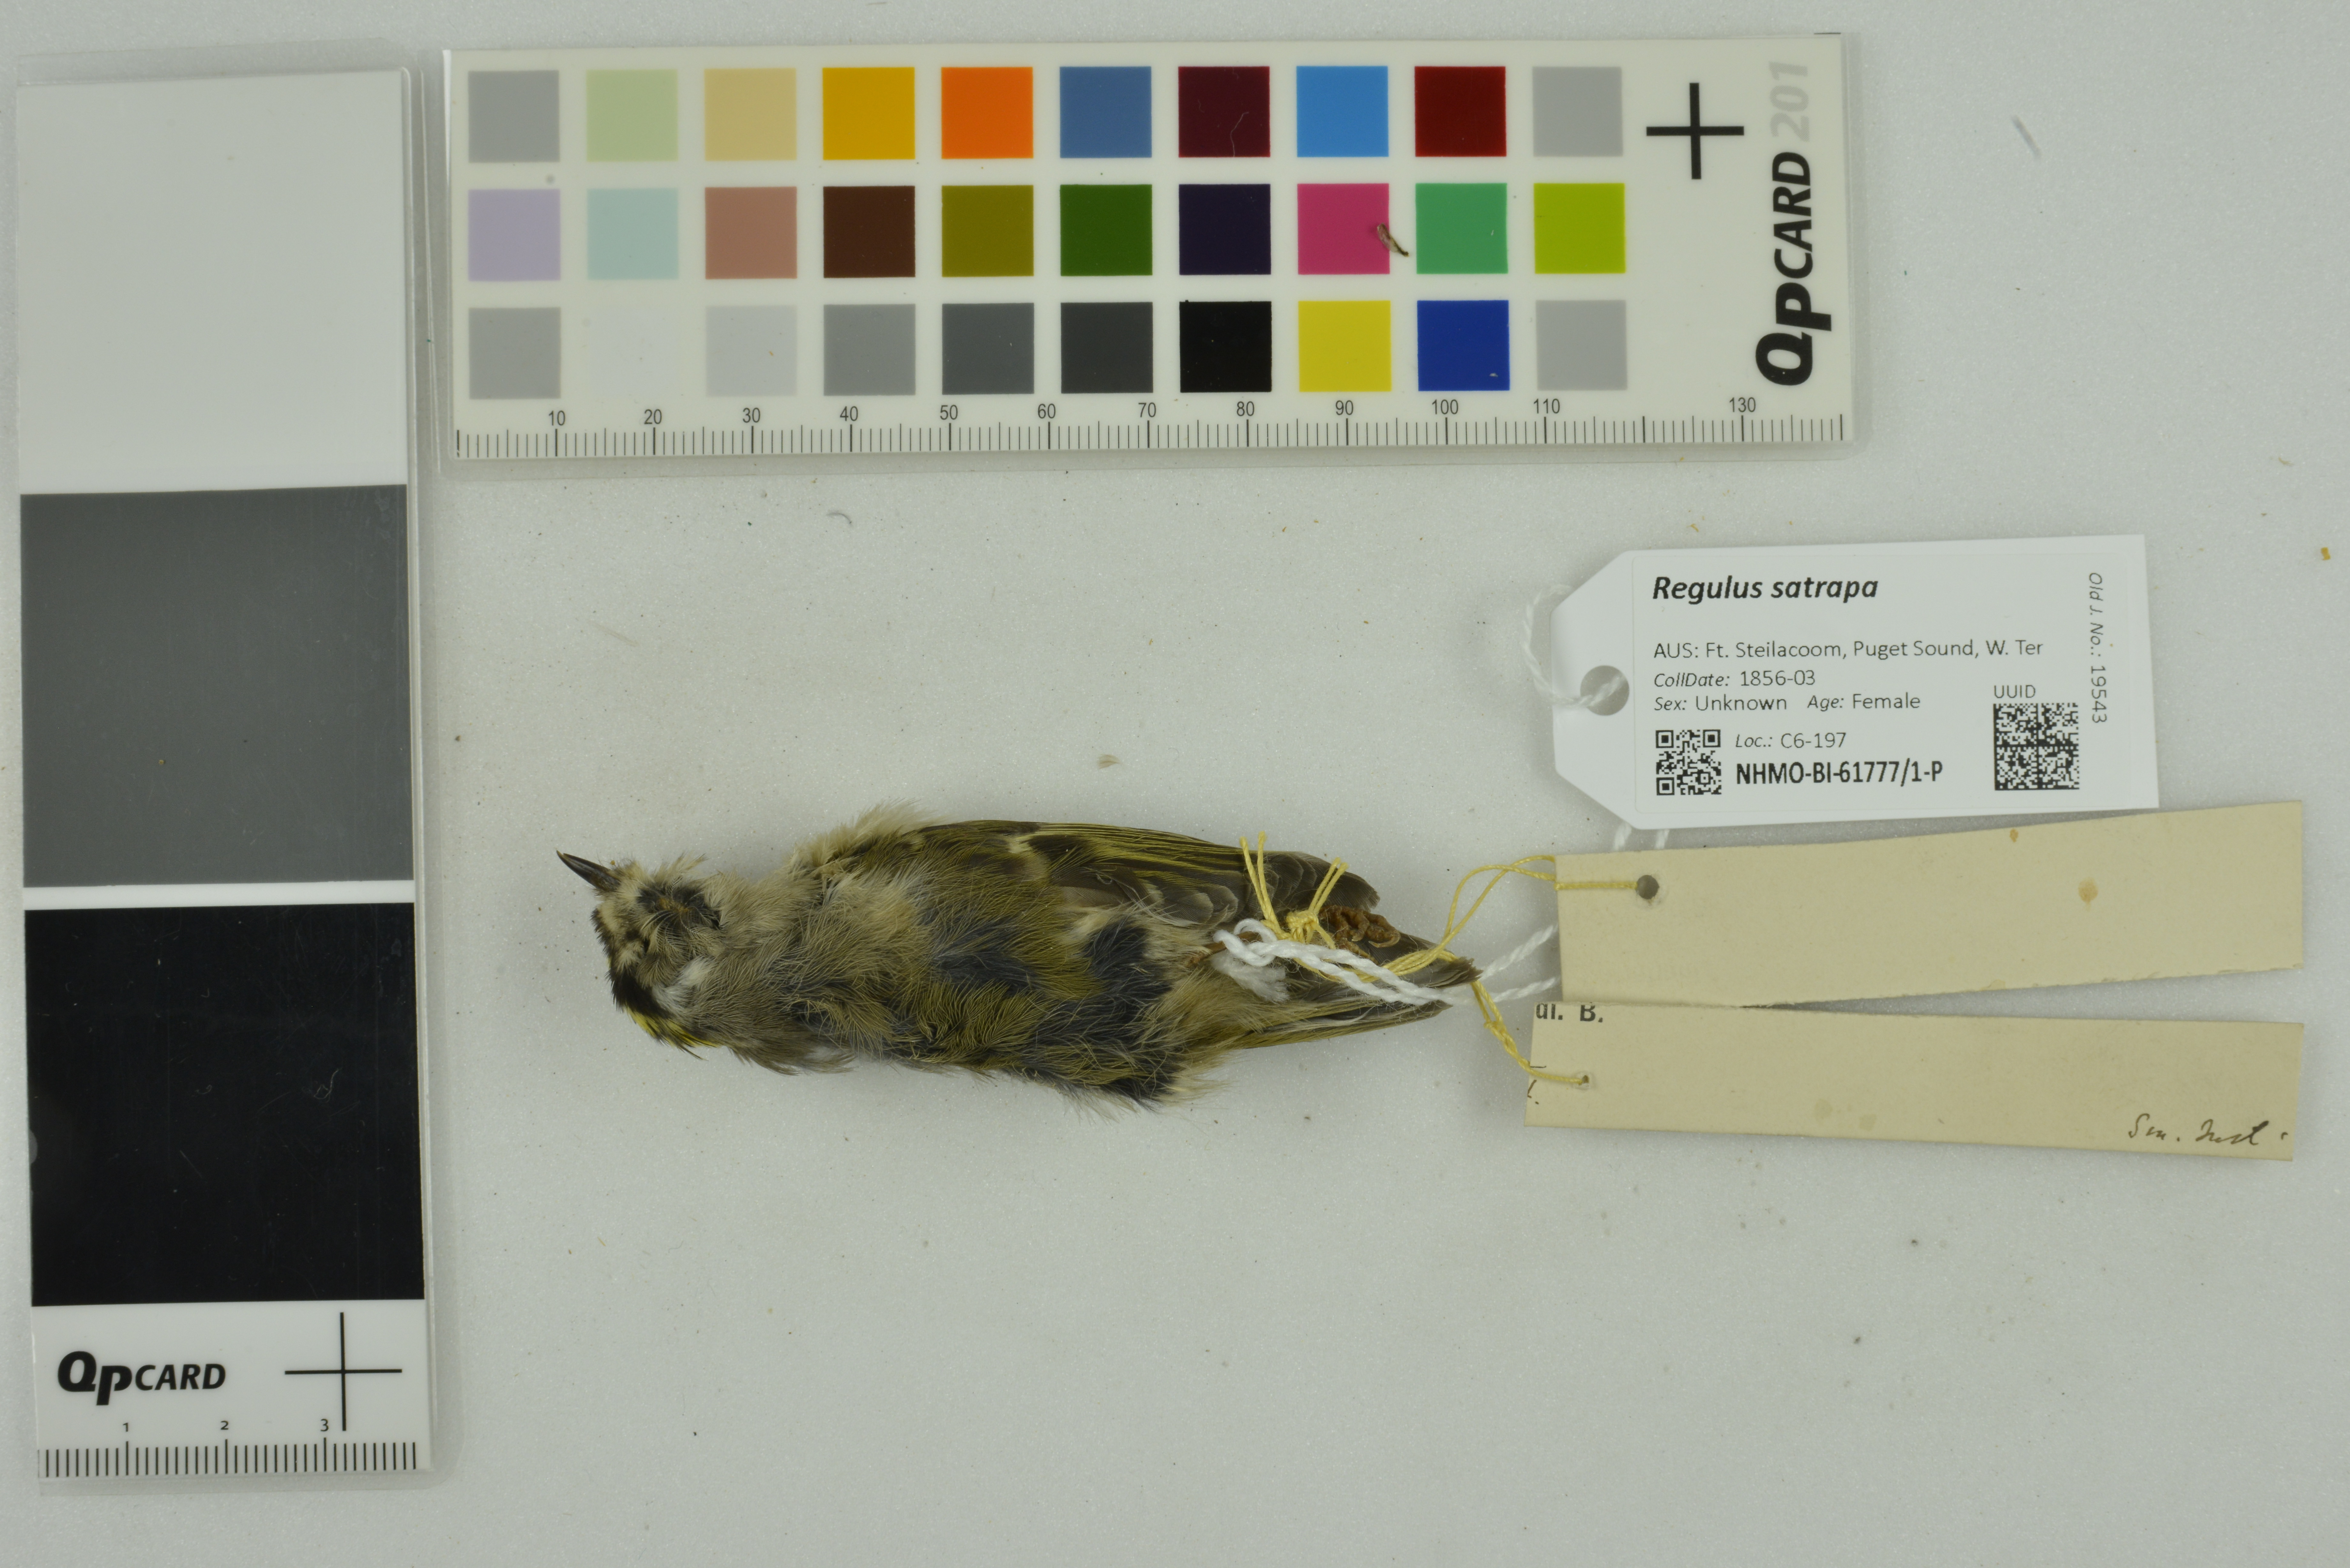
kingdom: Animalia
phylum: Chordata
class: Aves
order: Passeriformes
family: Regulidae
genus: Regulus
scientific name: Regulus satrapa
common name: Golden-crowned kinglet
